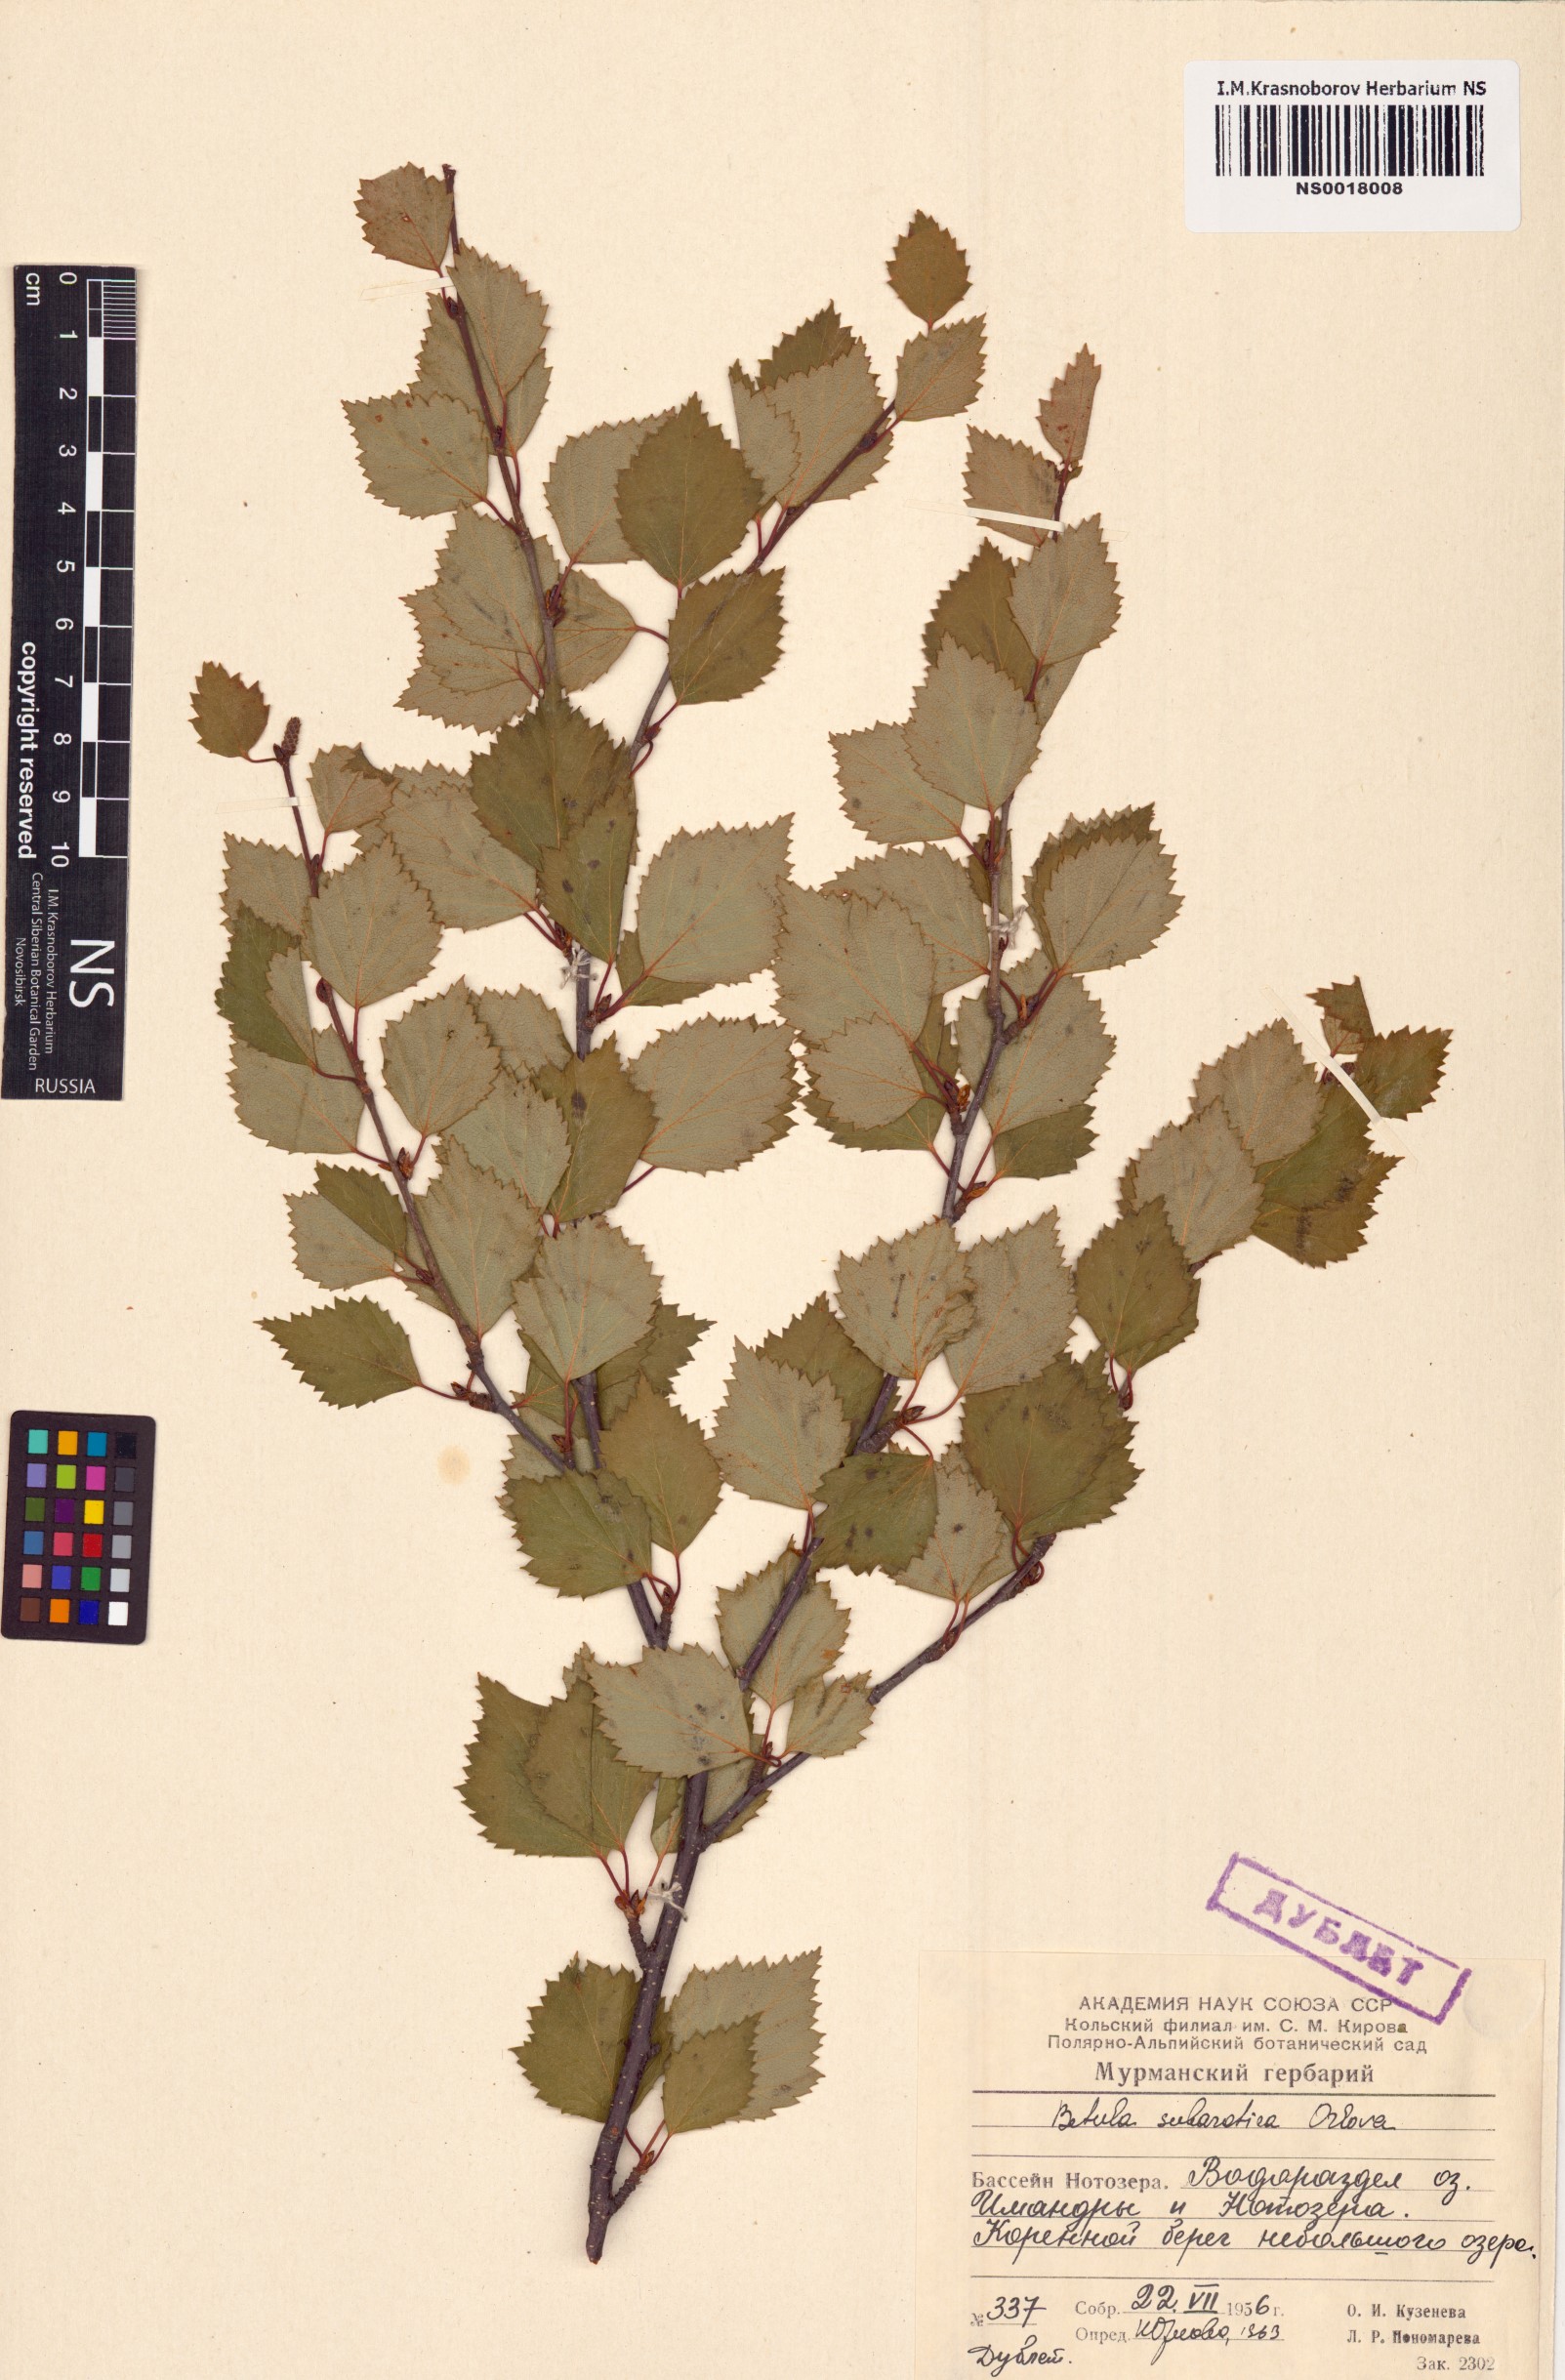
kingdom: Plantae
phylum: Tracheophyta
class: Magnoliopsida
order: Fagales
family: Betulaceae
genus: Betula
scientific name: Betula pubescens
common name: Downy birch
